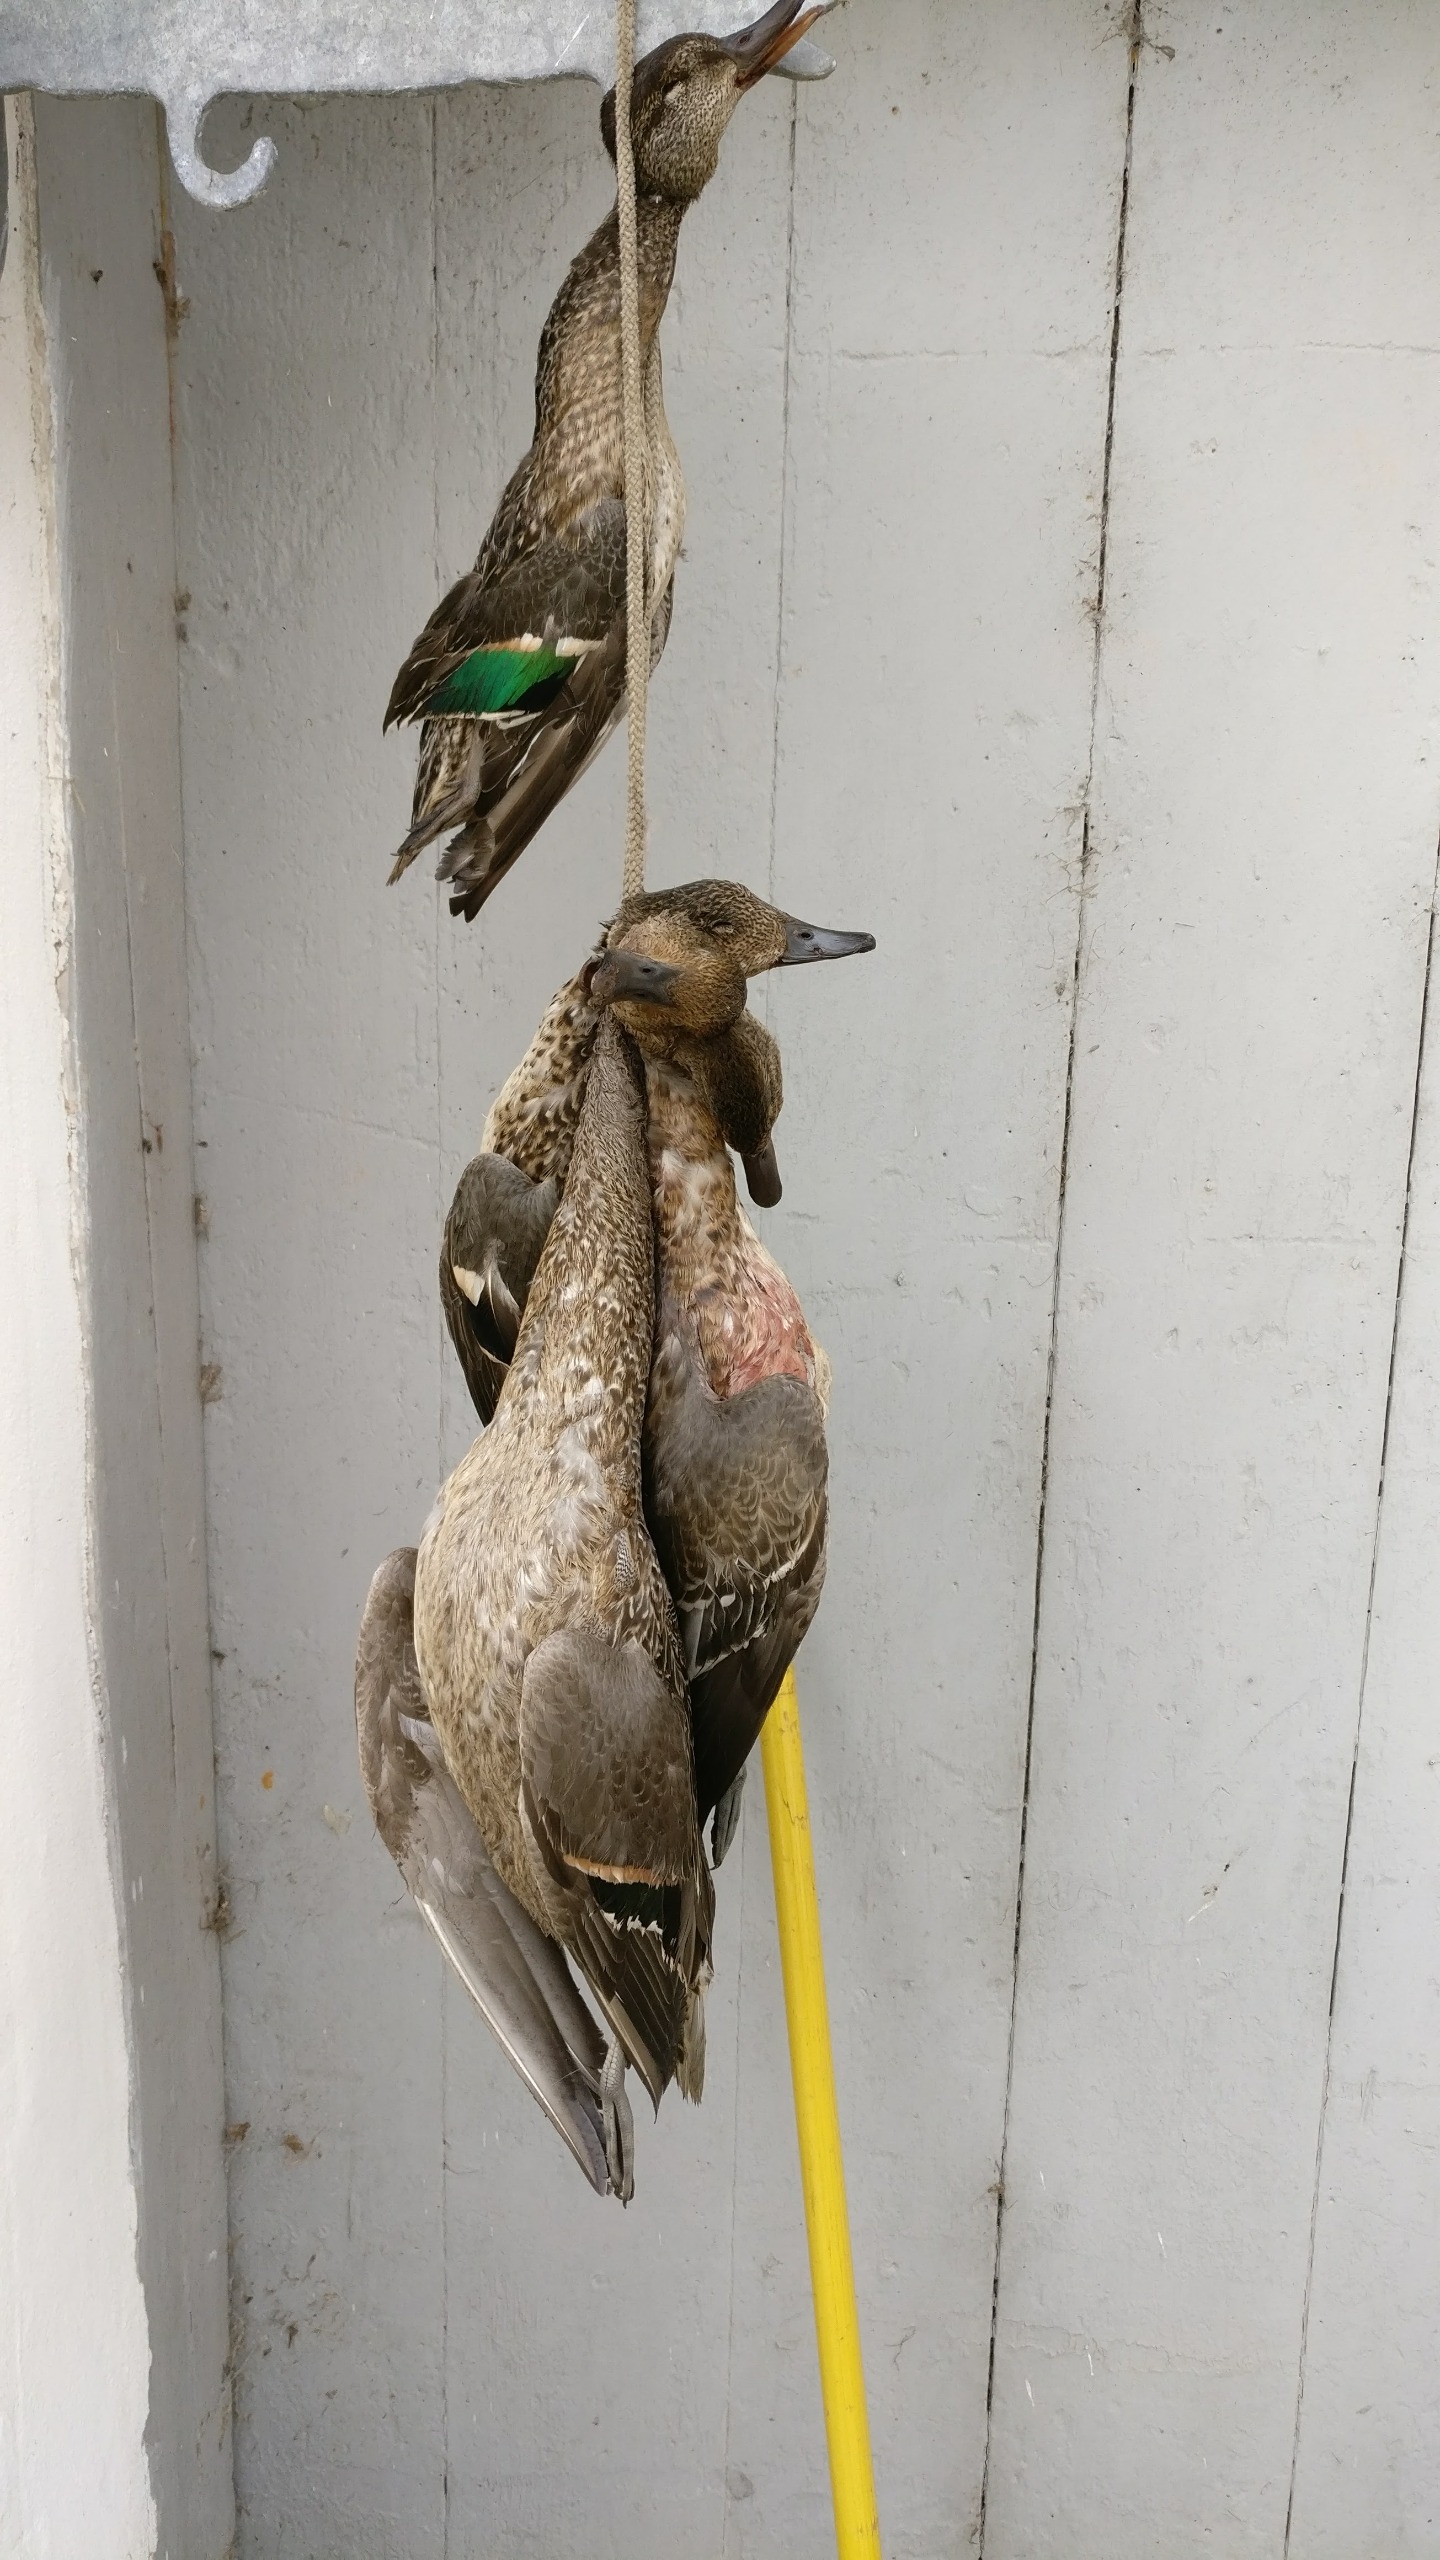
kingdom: Animalia
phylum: Chordata
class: Aves
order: Anseriformes
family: Anatidae
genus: Anas
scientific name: Anas crecca
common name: Krikand
